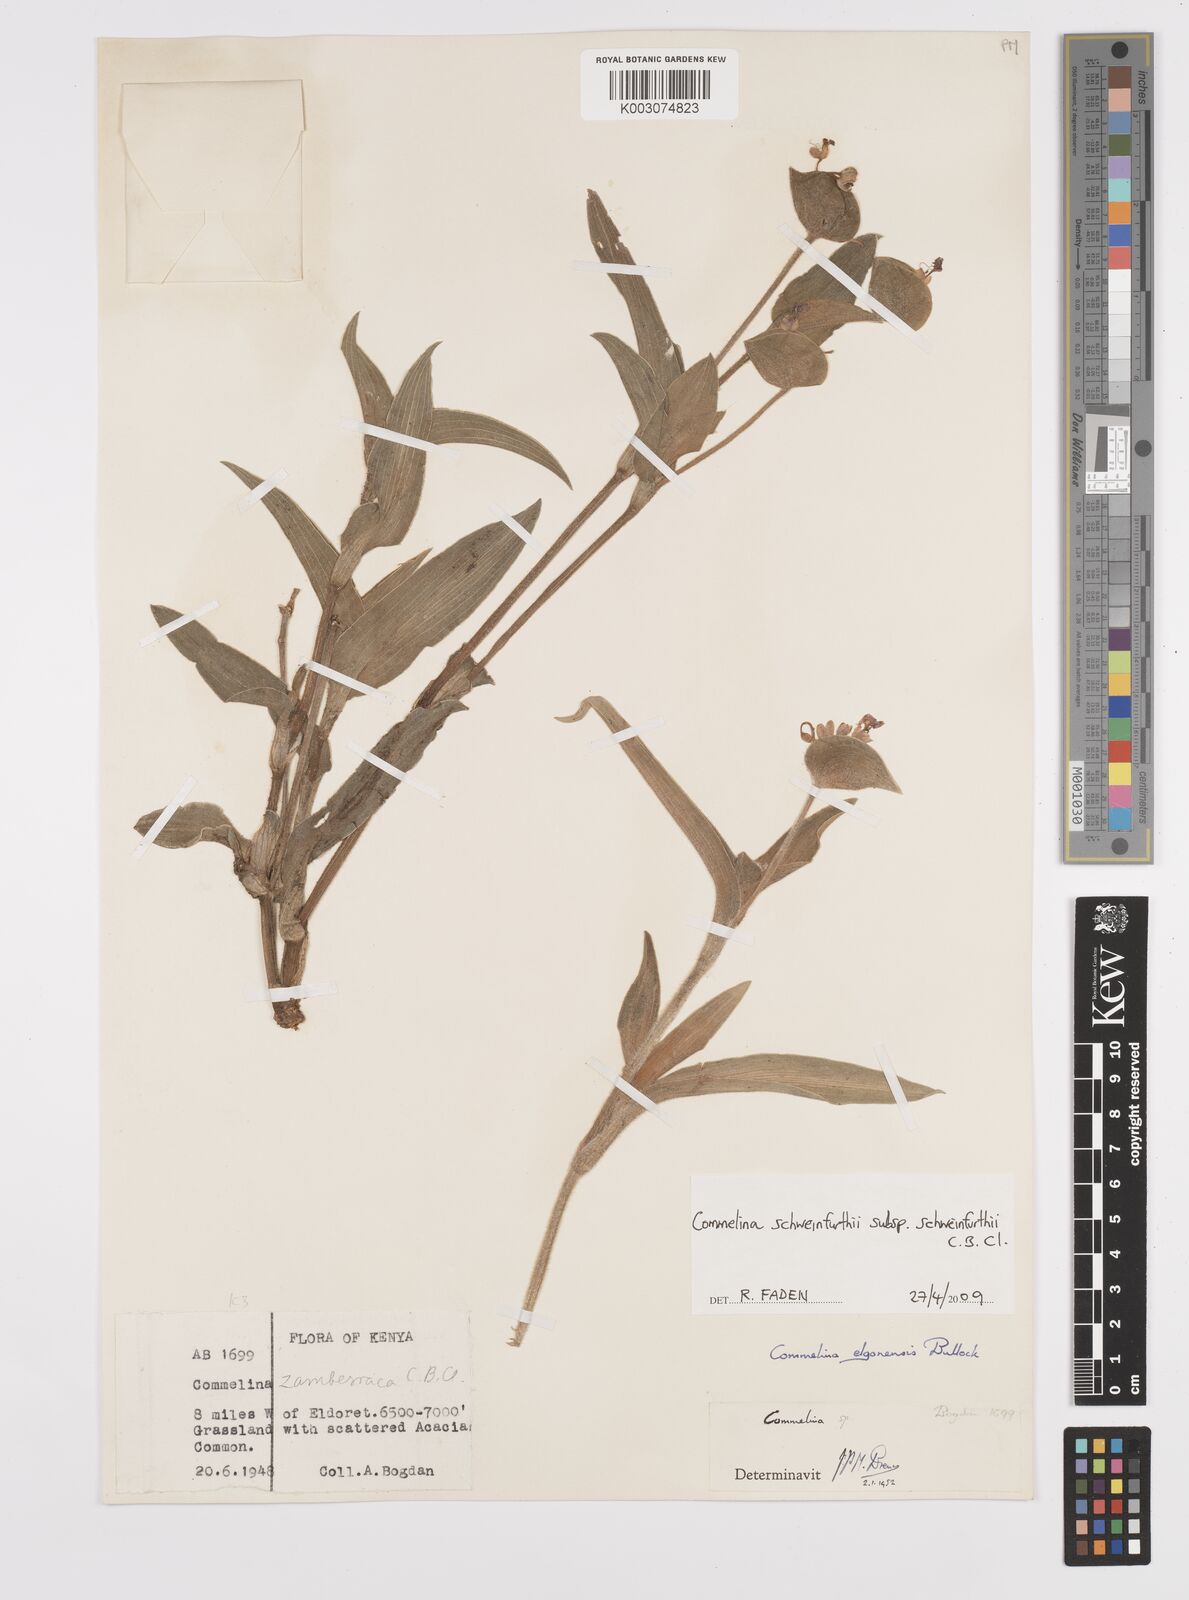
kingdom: Plantae
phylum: Tracheophyta
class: Liliopsida
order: Commelinales
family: Commelinaceae
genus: Commelina
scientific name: Commelina schweinfurthii
